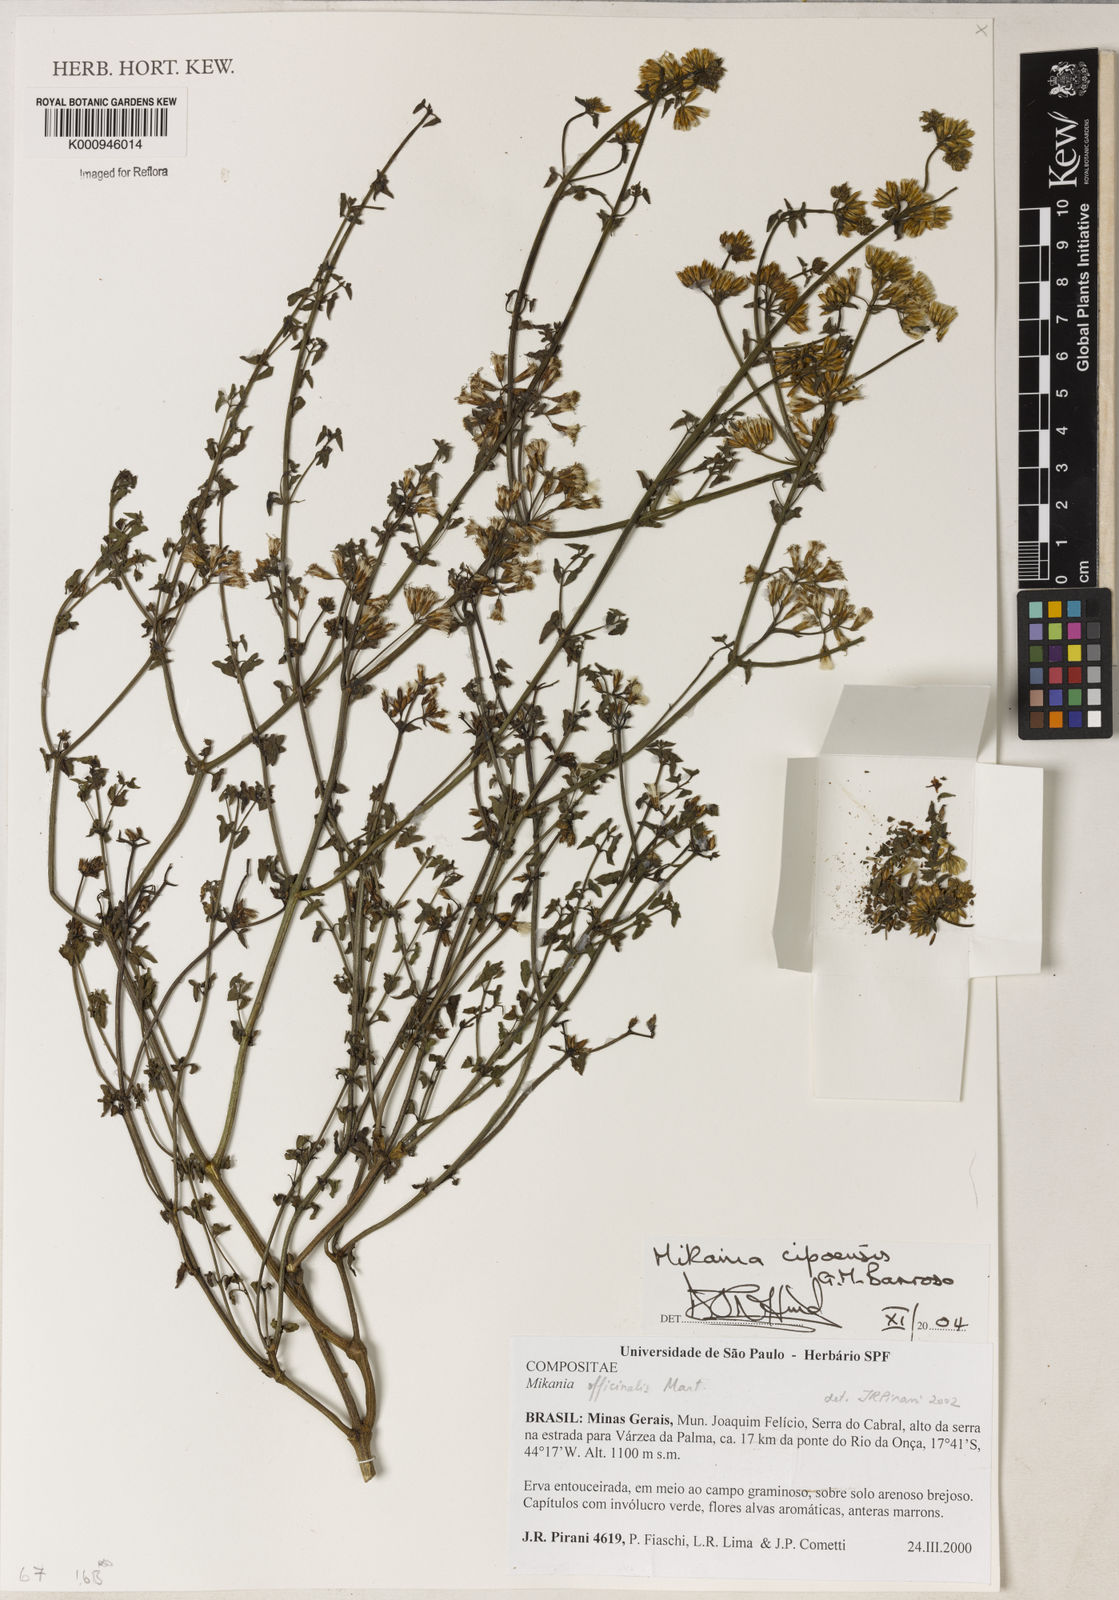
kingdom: Plantae
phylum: Tracheophyta
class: Magnoliopsida
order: Asterales
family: Asteraceae
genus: Mikania
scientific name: Mikania cipoensis
